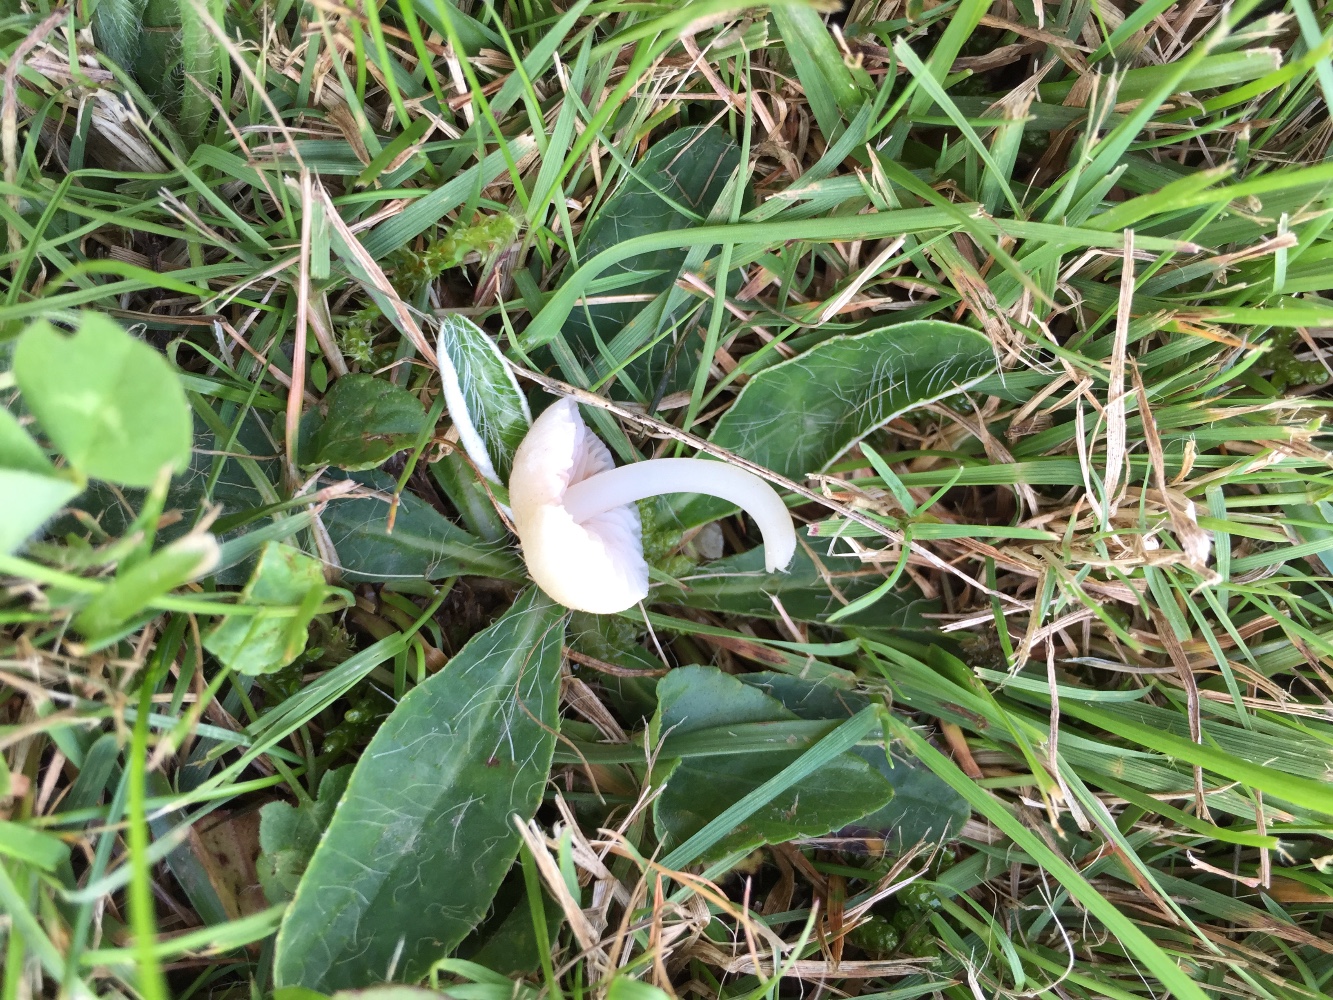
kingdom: Fungi
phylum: Basidiomycota
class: Agaricomycetes
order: Agaricales
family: Entolomataceae
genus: Entoloma
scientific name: Entoloma sericellum
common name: silkehvid rødblad
